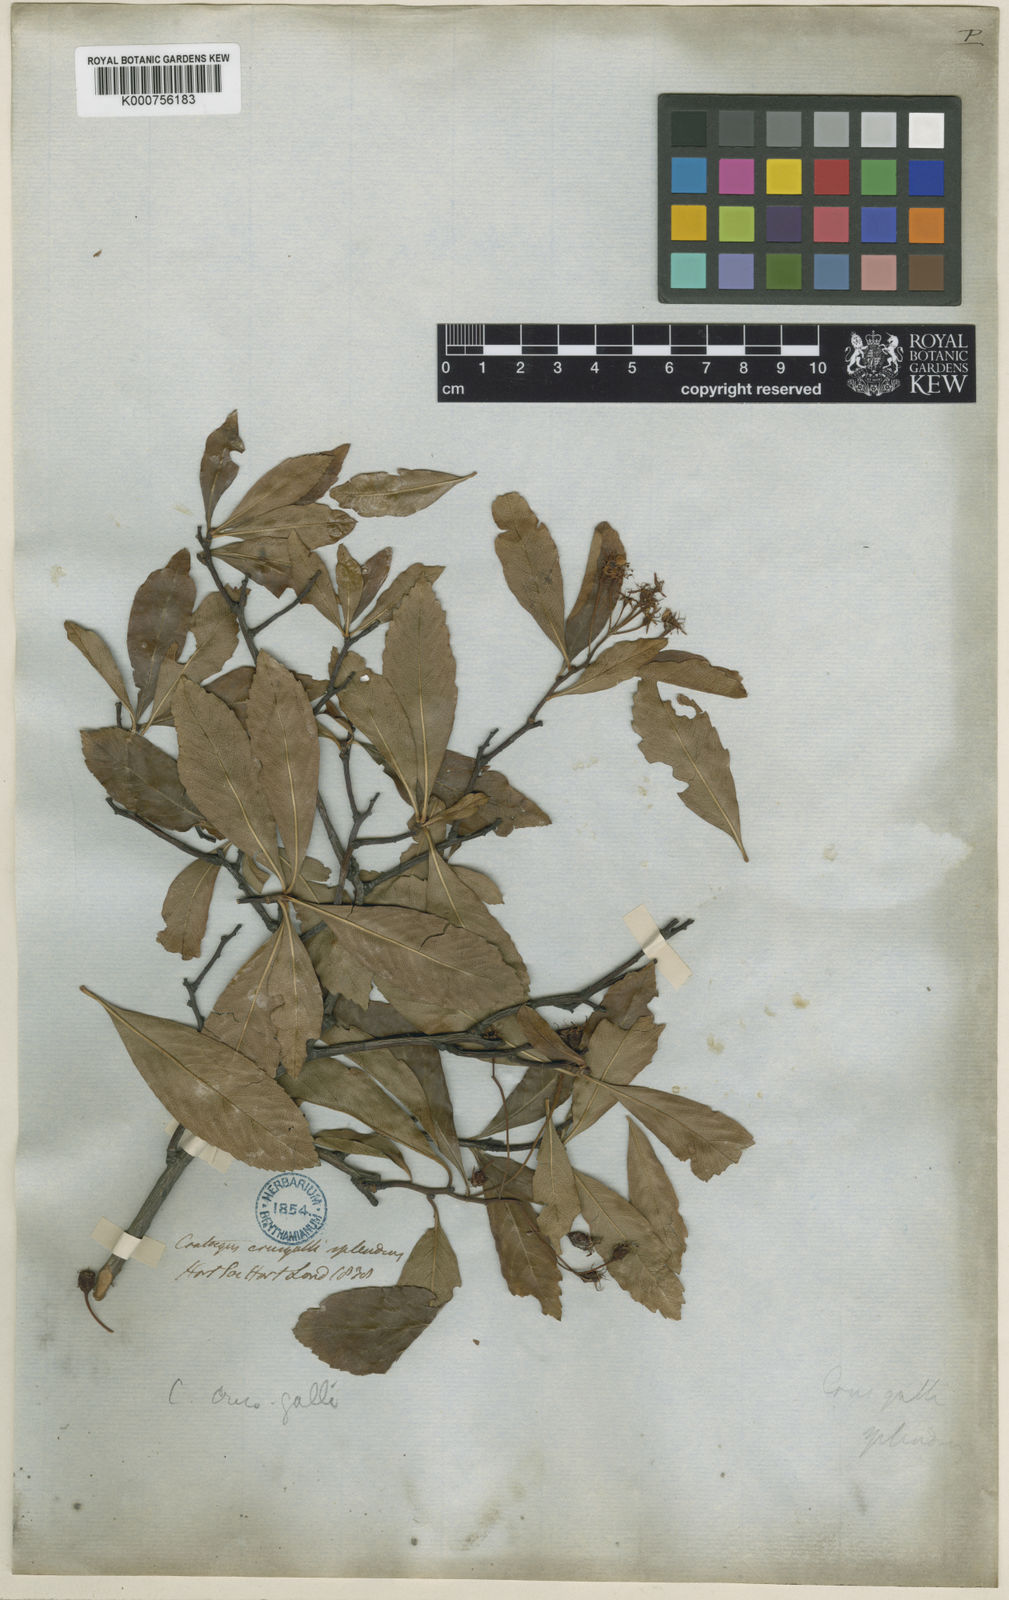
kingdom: Plantae
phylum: Tracheophyta
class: Magnoliopsida
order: Rosales
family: Rosaceae
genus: Crataegus
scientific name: Crataegus crus-galli
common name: Cockspurthorn
